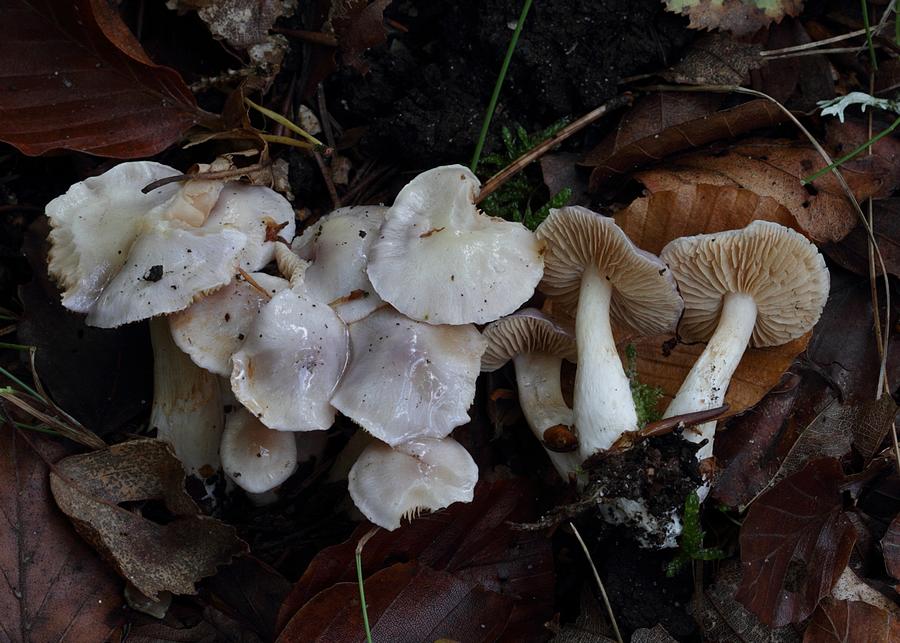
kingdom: Fungi
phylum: Basidiomycota
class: Agaricomycetes
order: Agaricales
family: Cortinariaceae
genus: Thaxterogaster
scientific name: Thaxterogaster croceocoeruleus
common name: blågullig slørhat
